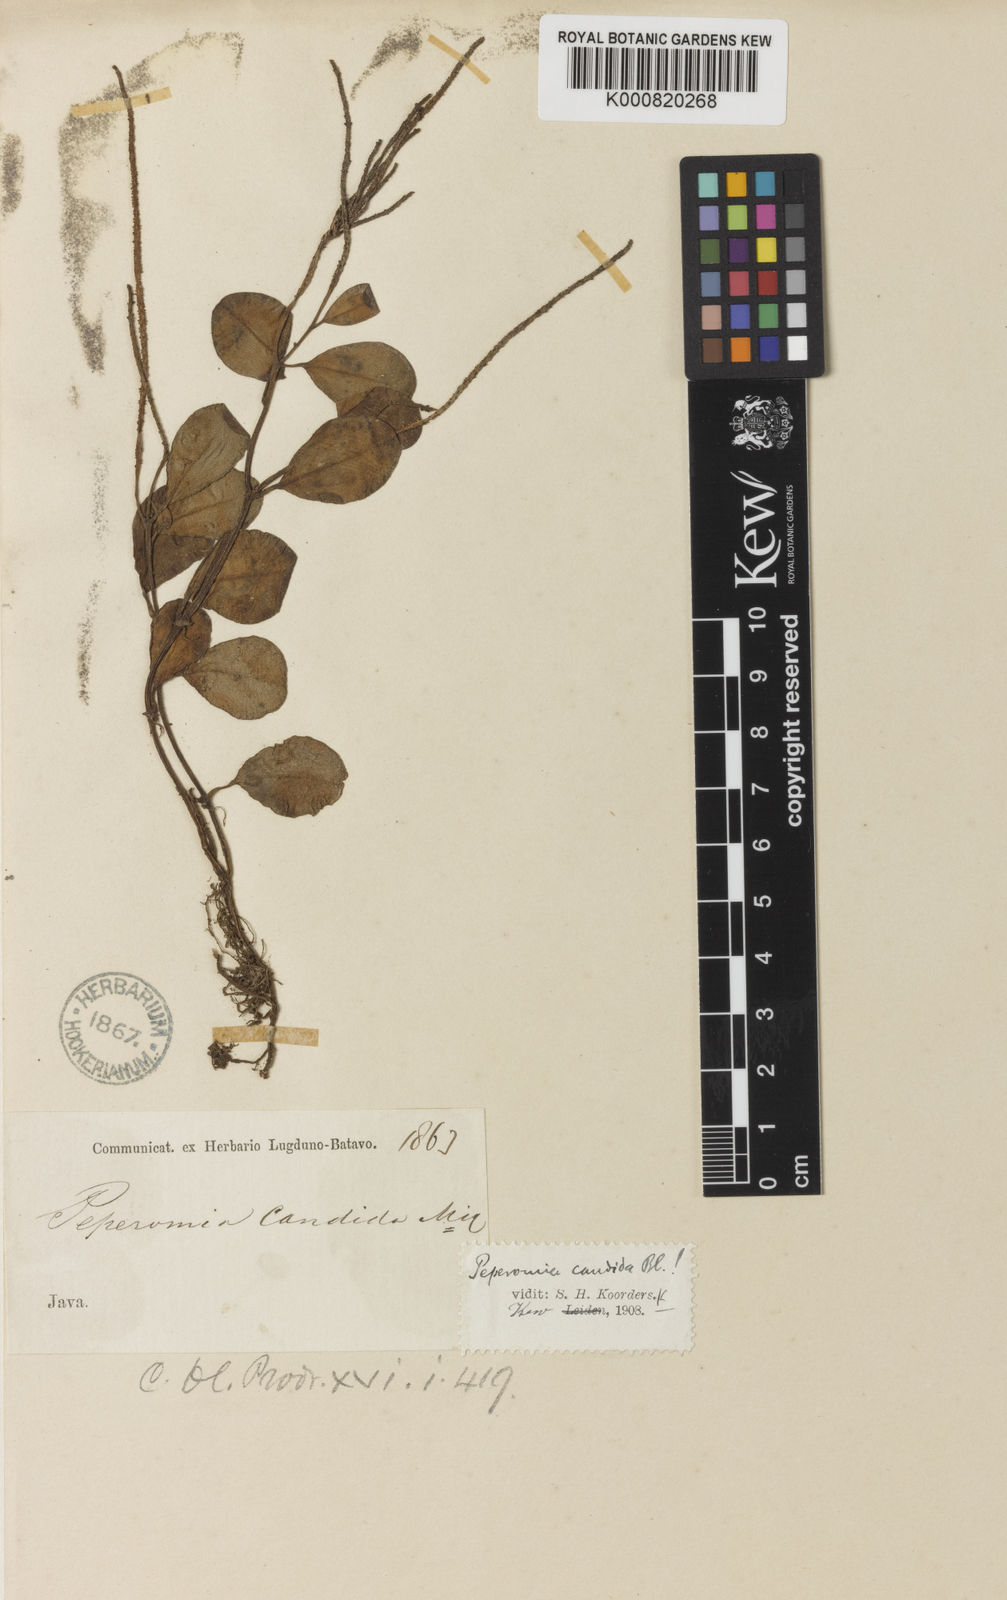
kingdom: Plantae
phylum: Tracheophyta
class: Magnoliopsida
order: Piperales
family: Piperaceae
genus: Peperomia
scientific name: Peperomia candida
